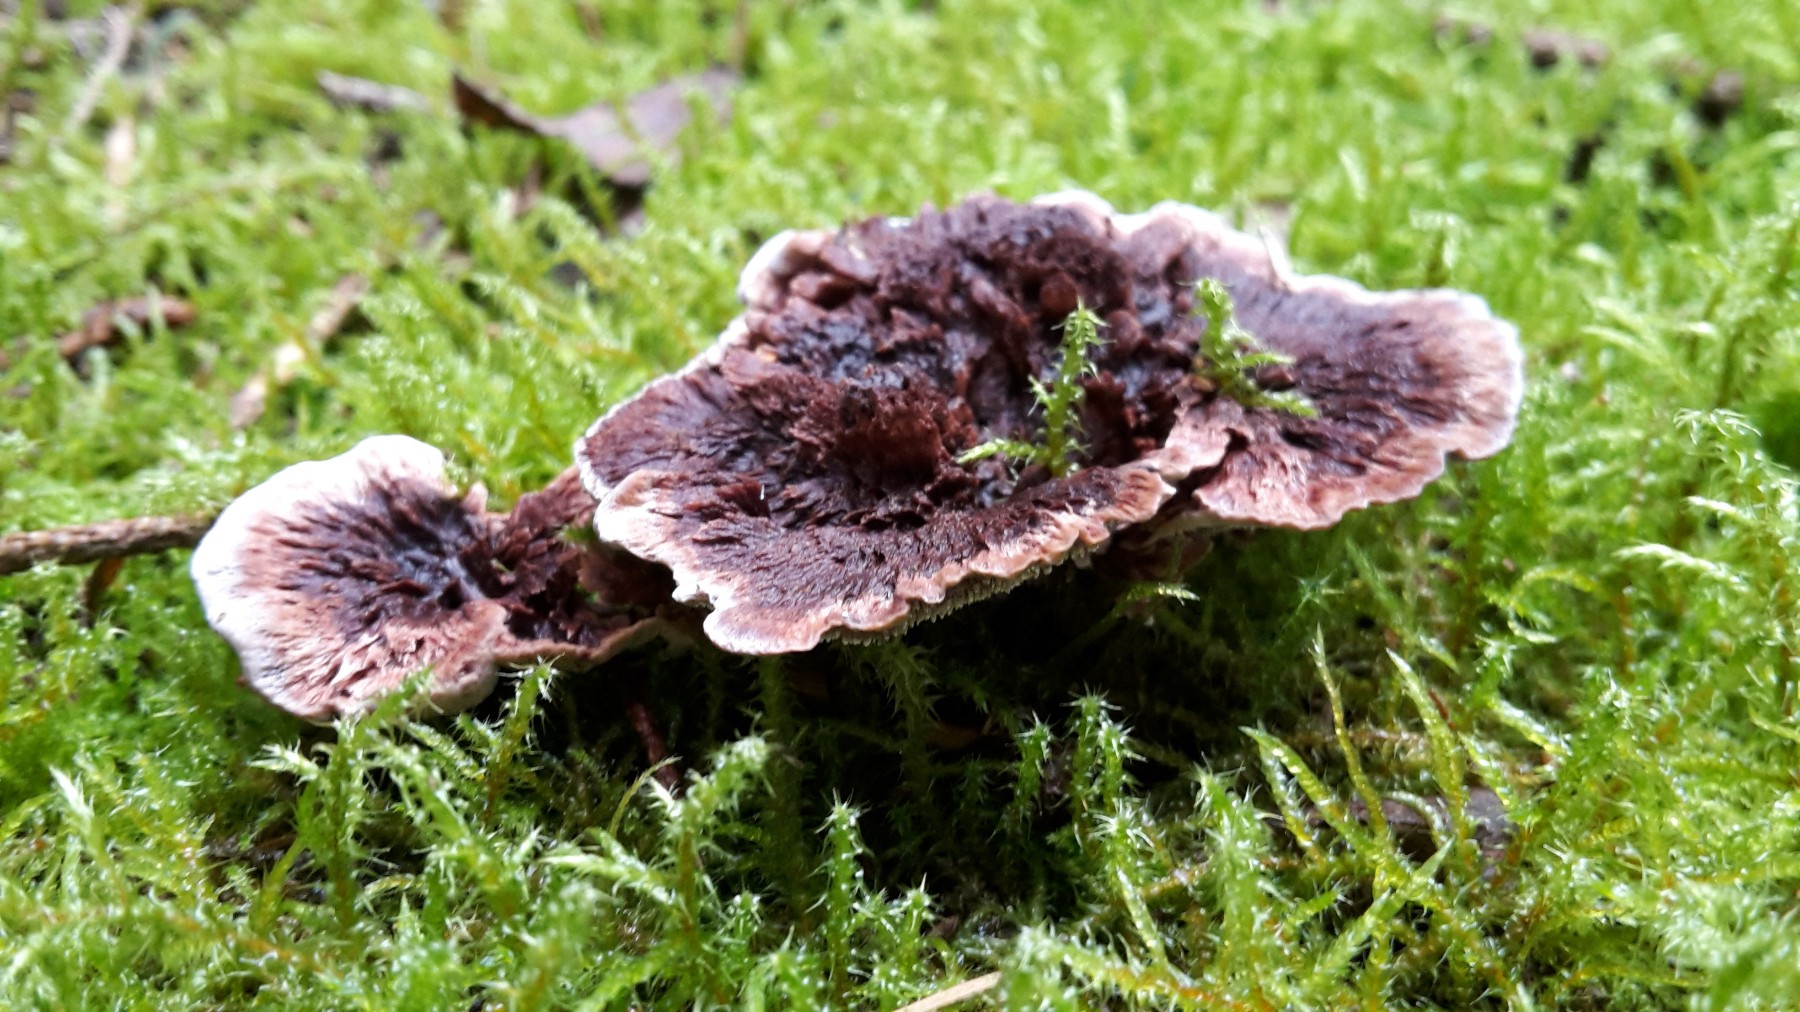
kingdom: Fungi
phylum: Basidiomycota
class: Agaricomycetes
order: Thelephorales
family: Bankeraceae
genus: Hydnellum
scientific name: Hydnellum concrescens
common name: bæltet korkpigsvamp
